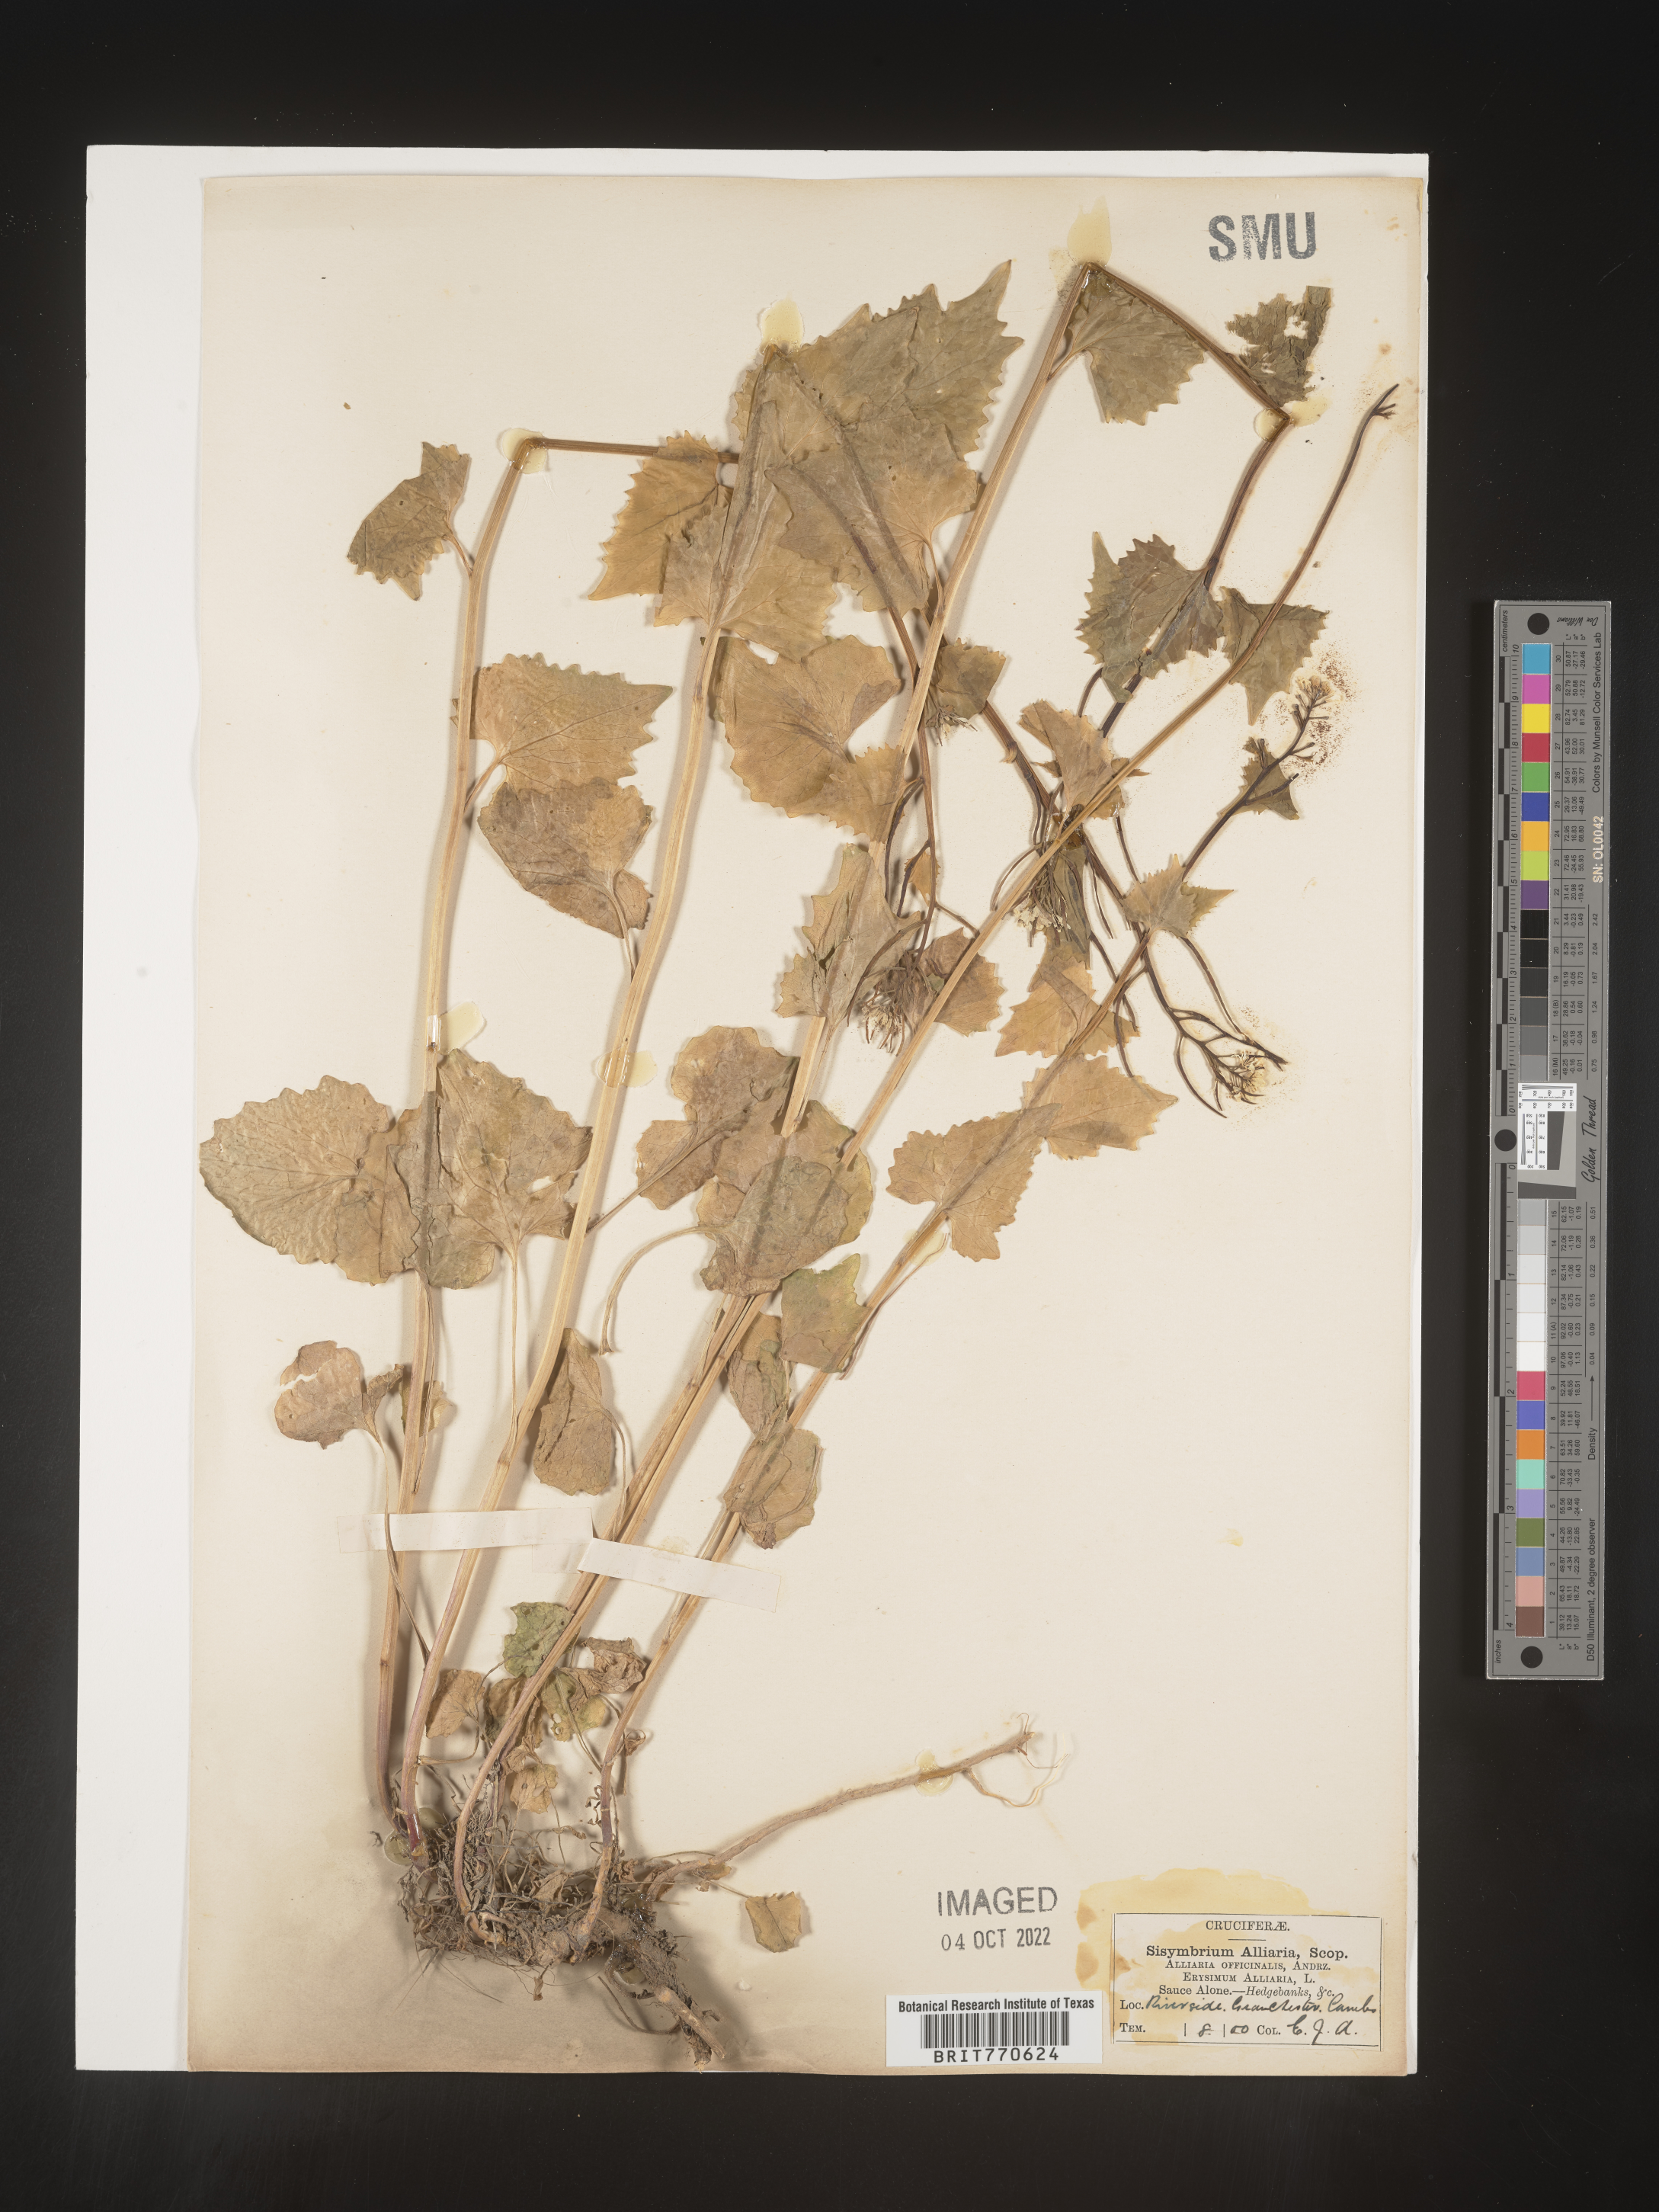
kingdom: Plantae
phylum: Tracheophyta
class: Magnoliopsida
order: Brassicales
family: Brassicaceae
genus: Alliaria
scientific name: Alliaria
